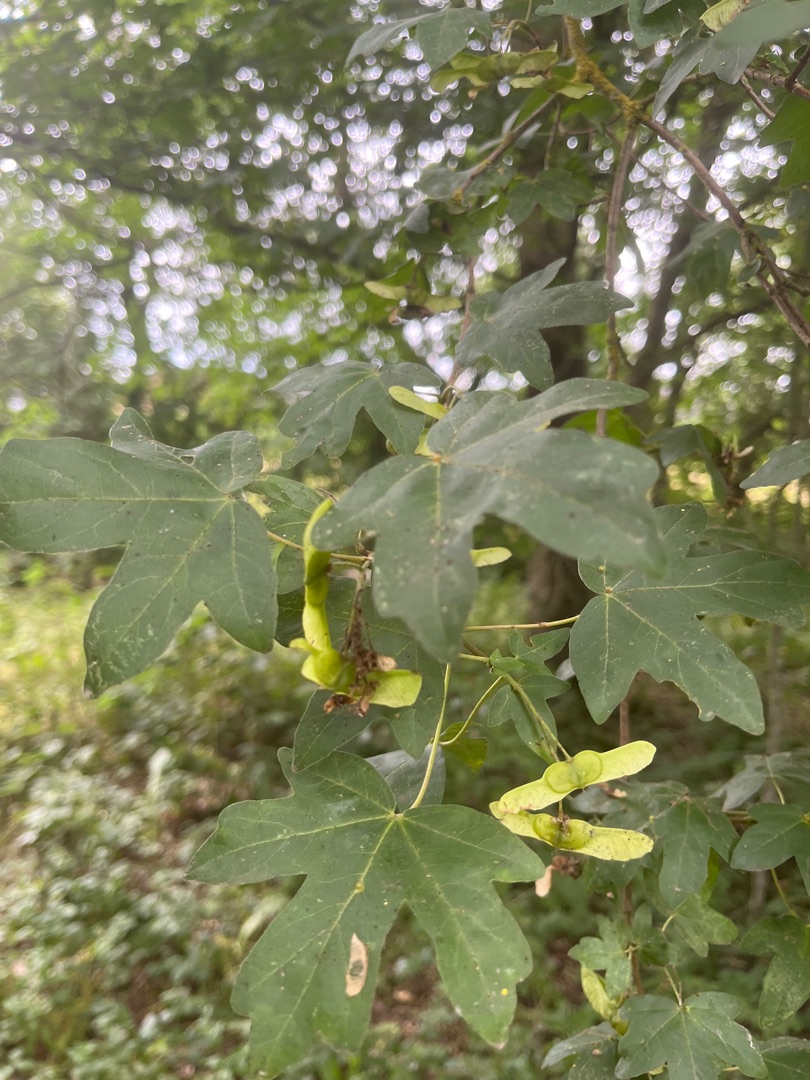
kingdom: Plantae
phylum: Tracheophyta
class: Magnoliopsida
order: Sapindales
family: Sapindaceae
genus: Acer
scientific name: Acer campestre
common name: Navr
